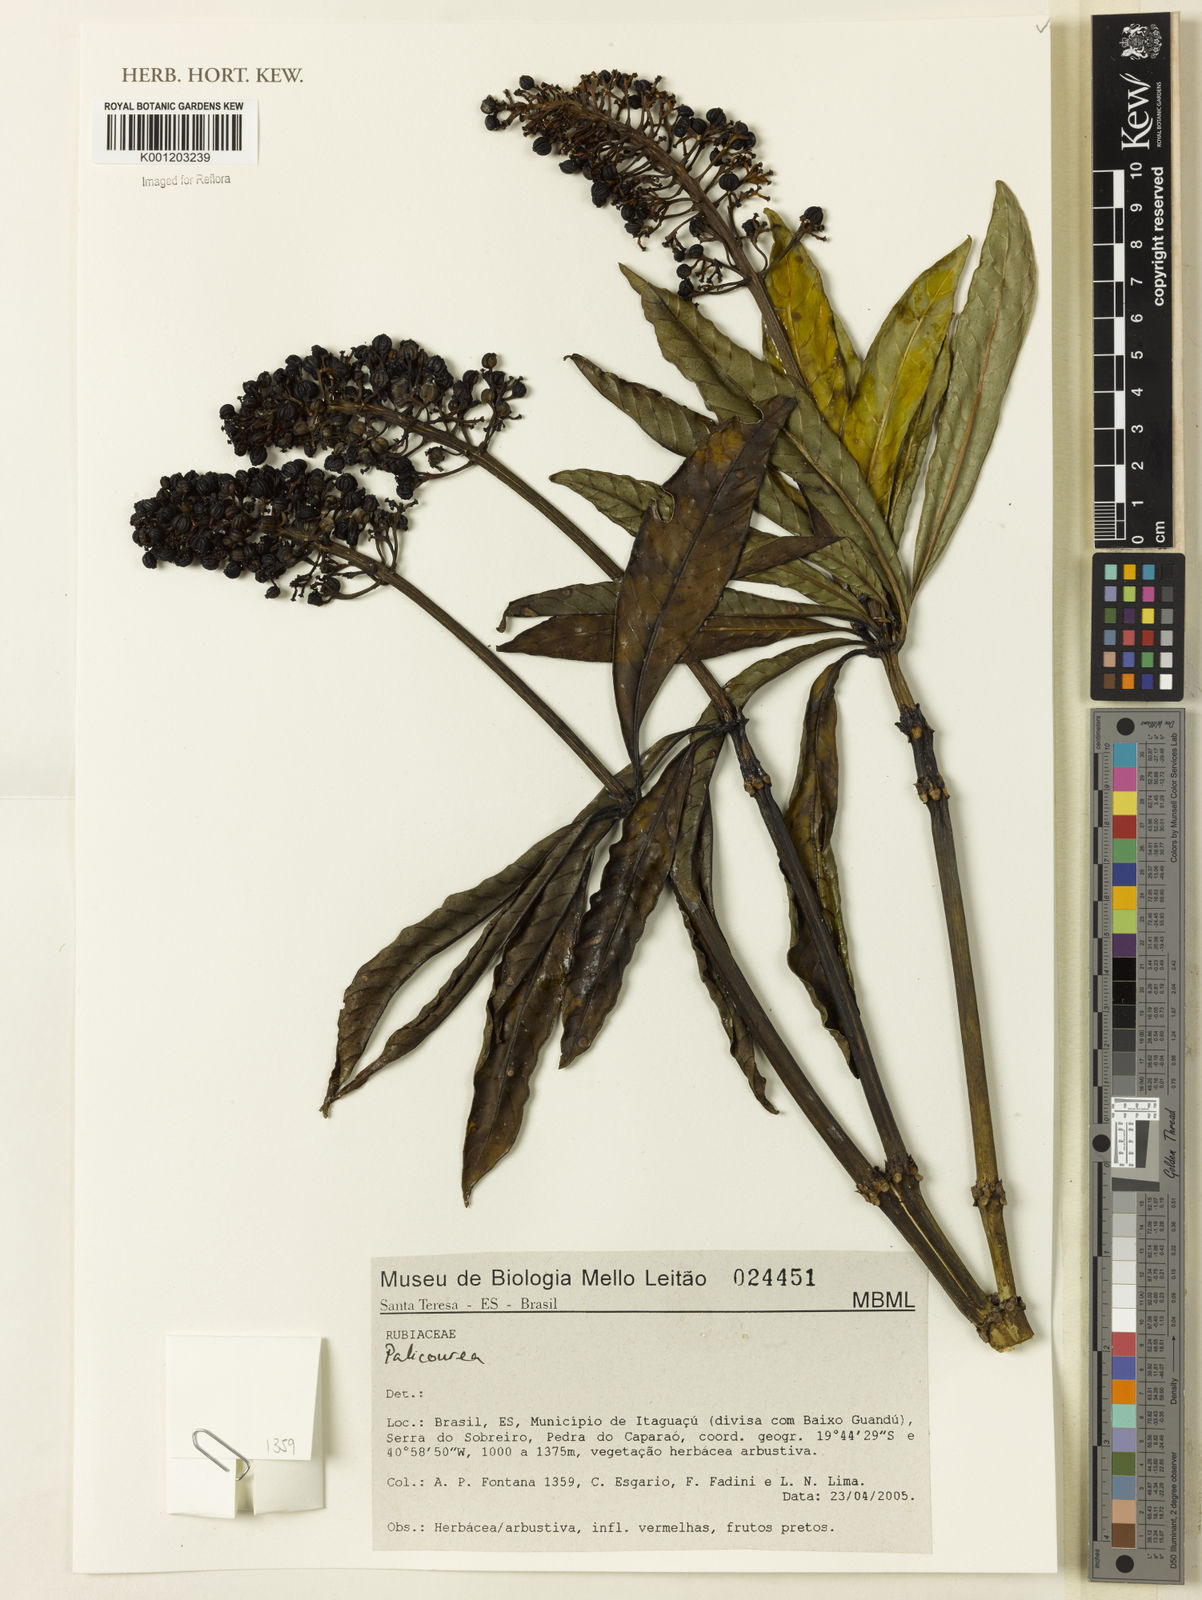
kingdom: Plantae
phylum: Tracheophyta
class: Magnoliopsida
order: Gentianales
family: Rubiaceae
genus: Palicourea
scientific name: Palicourea
